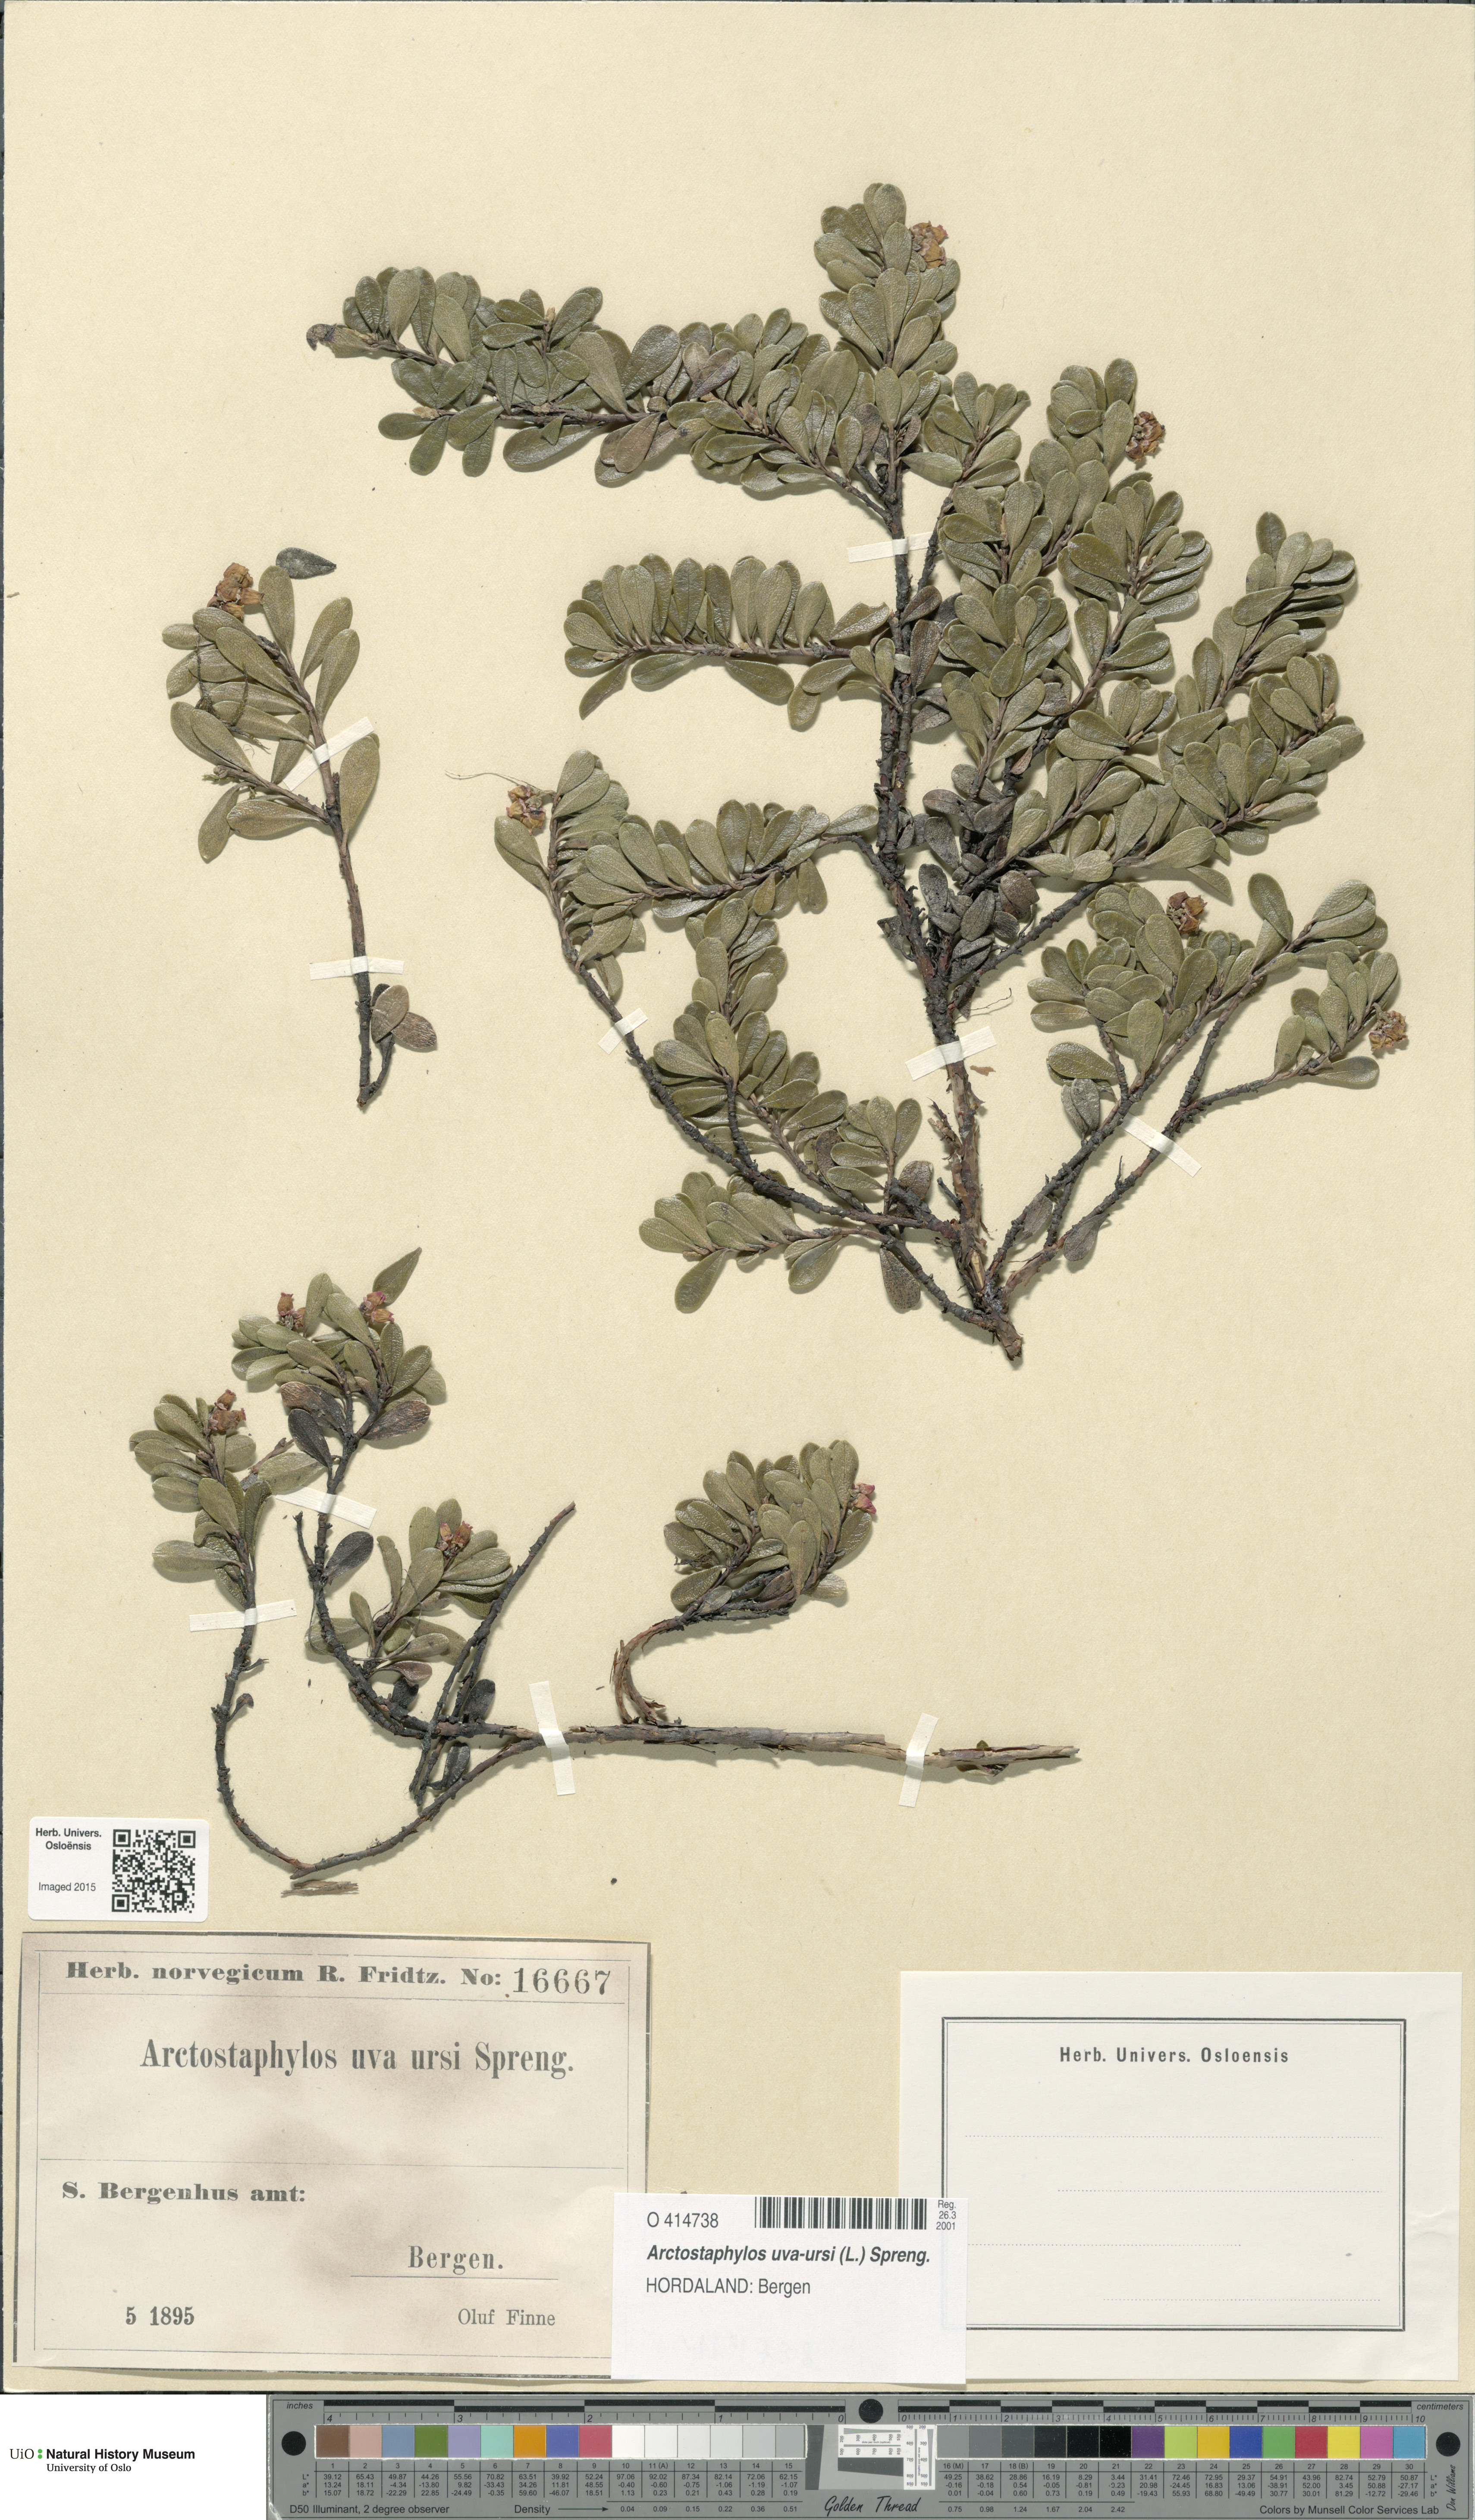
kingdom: Plantae
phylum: Tracheophyta
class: Magnoliopsida
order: Ericales
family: Ericaceae
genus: Arctostaphylos
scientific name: Arctostaphylos uva-ursi
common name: Bearberry
